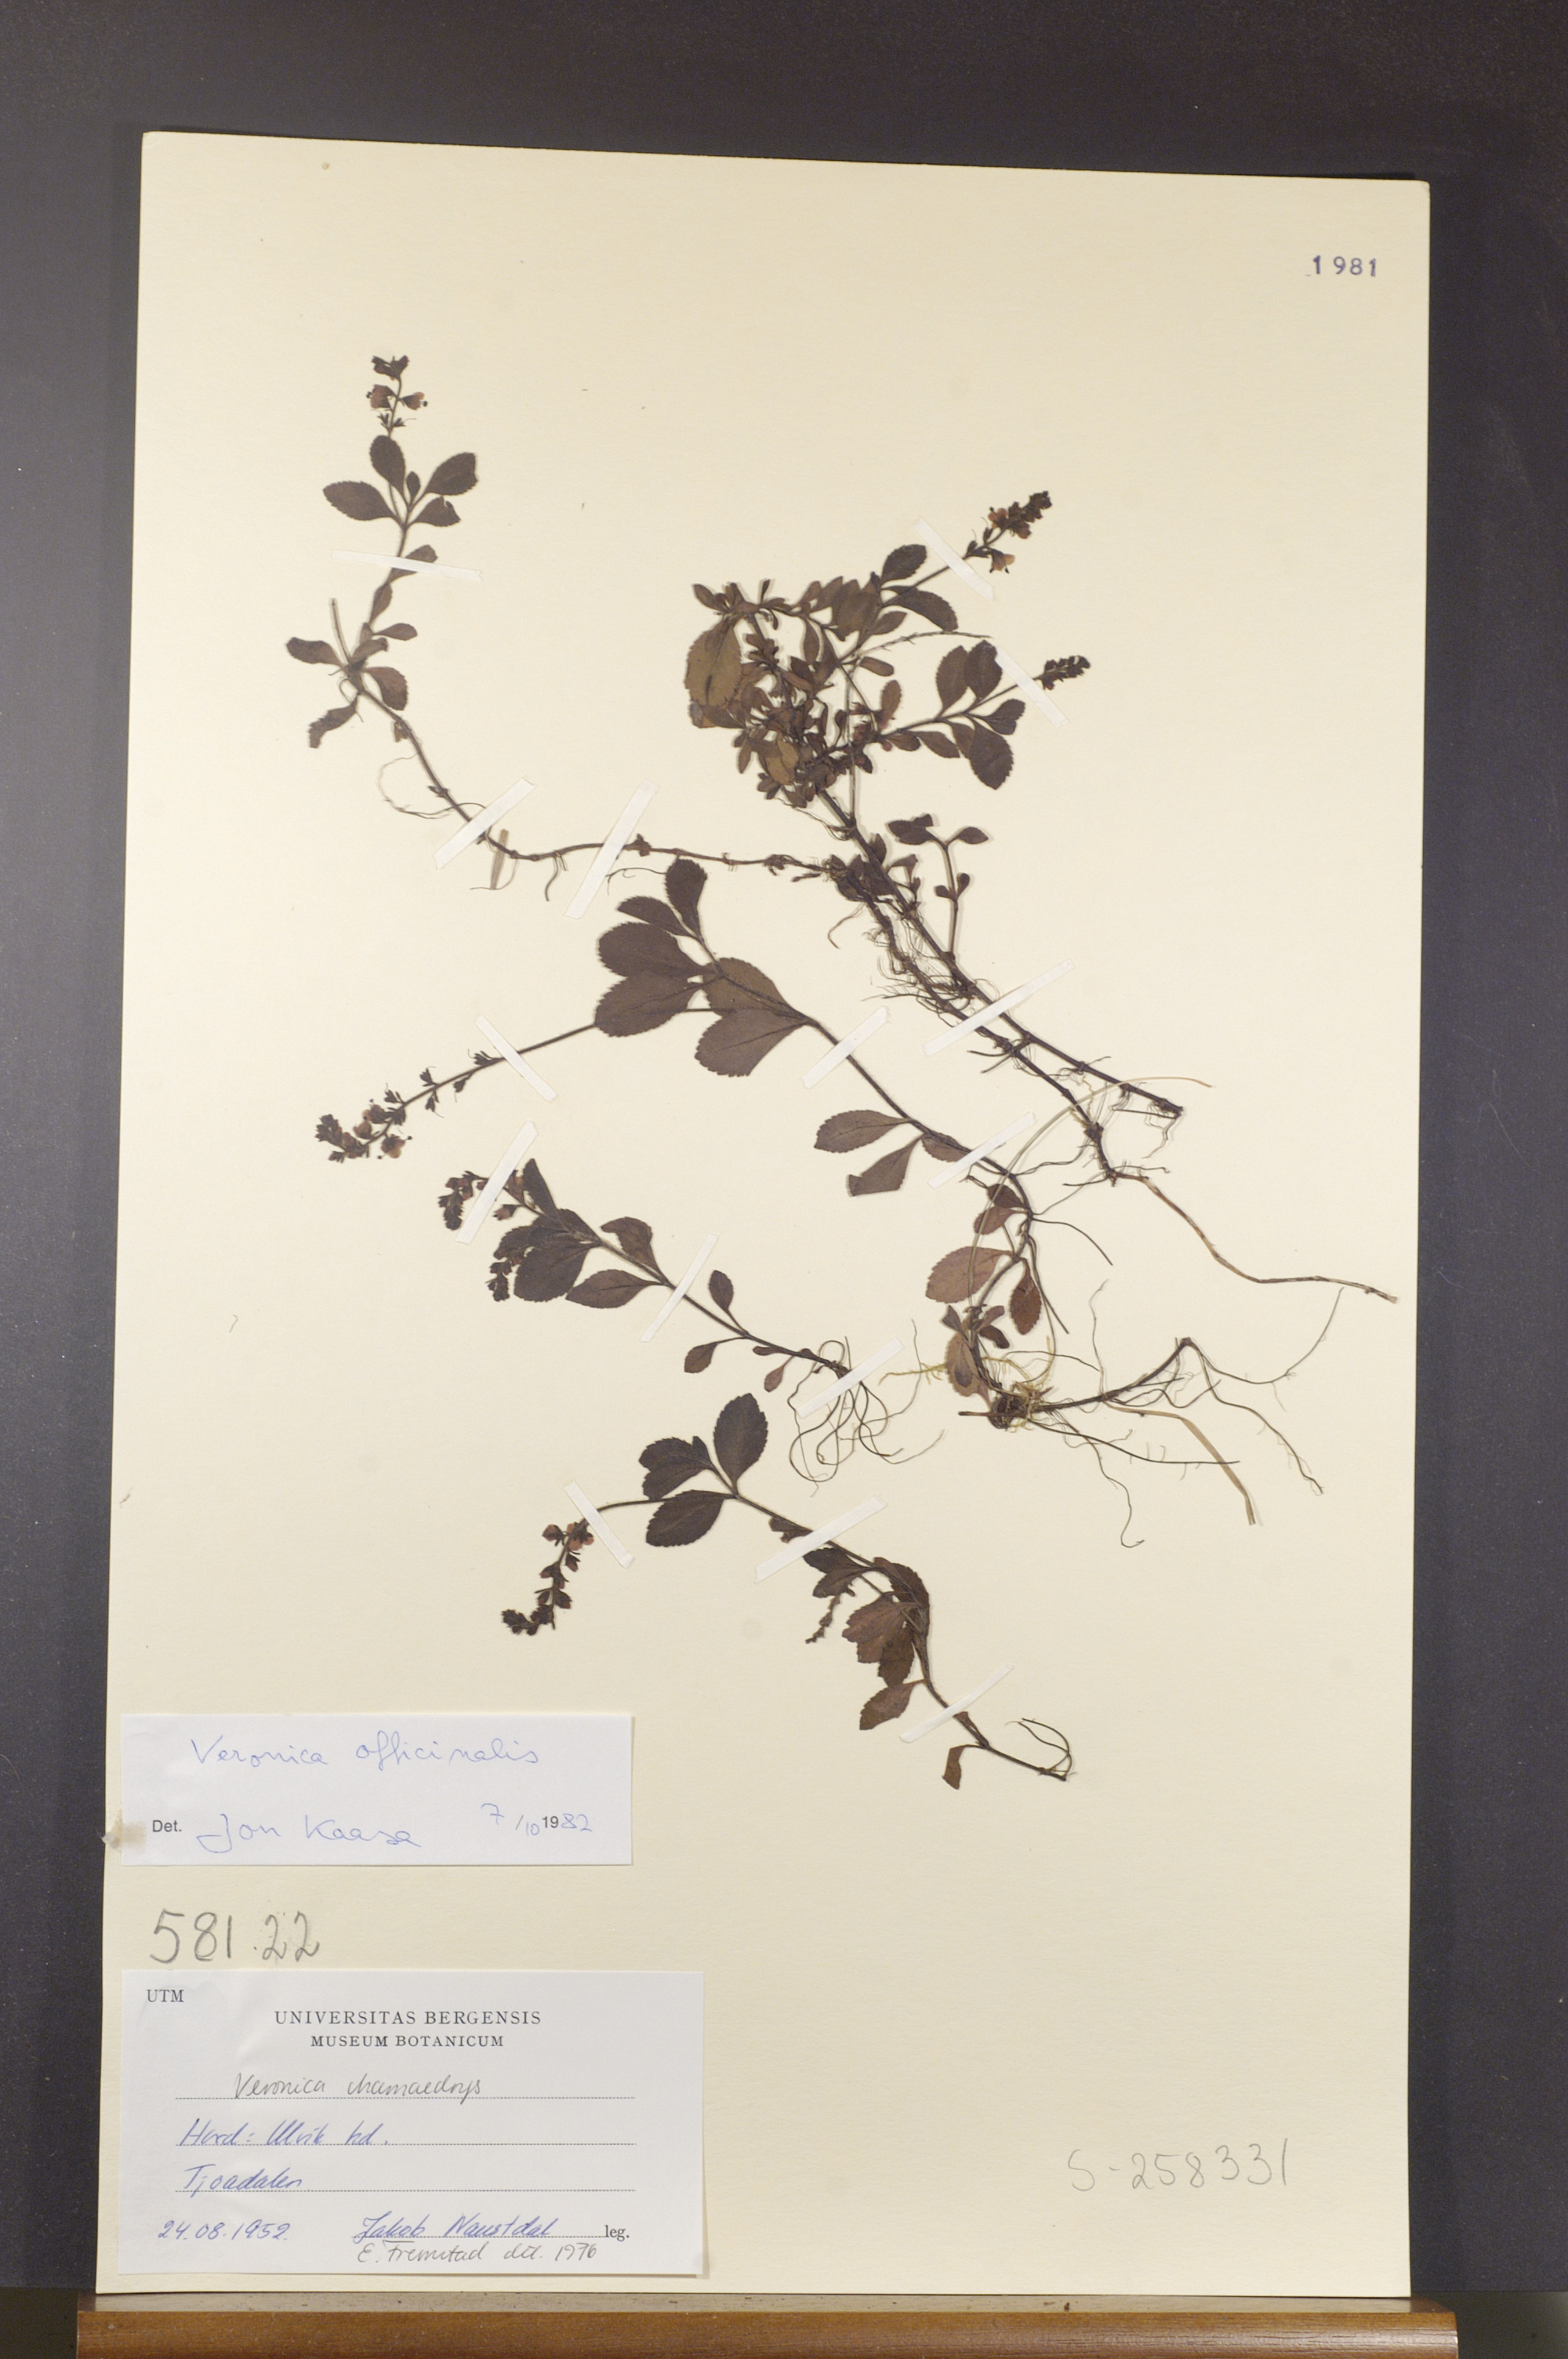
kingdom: Plantae
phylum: Tracheophyta
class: Magnoliopsida
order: Lamiales
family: Plantaginaceae
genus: Veronica
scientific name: Veronica officinalis
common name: Common speedwell
